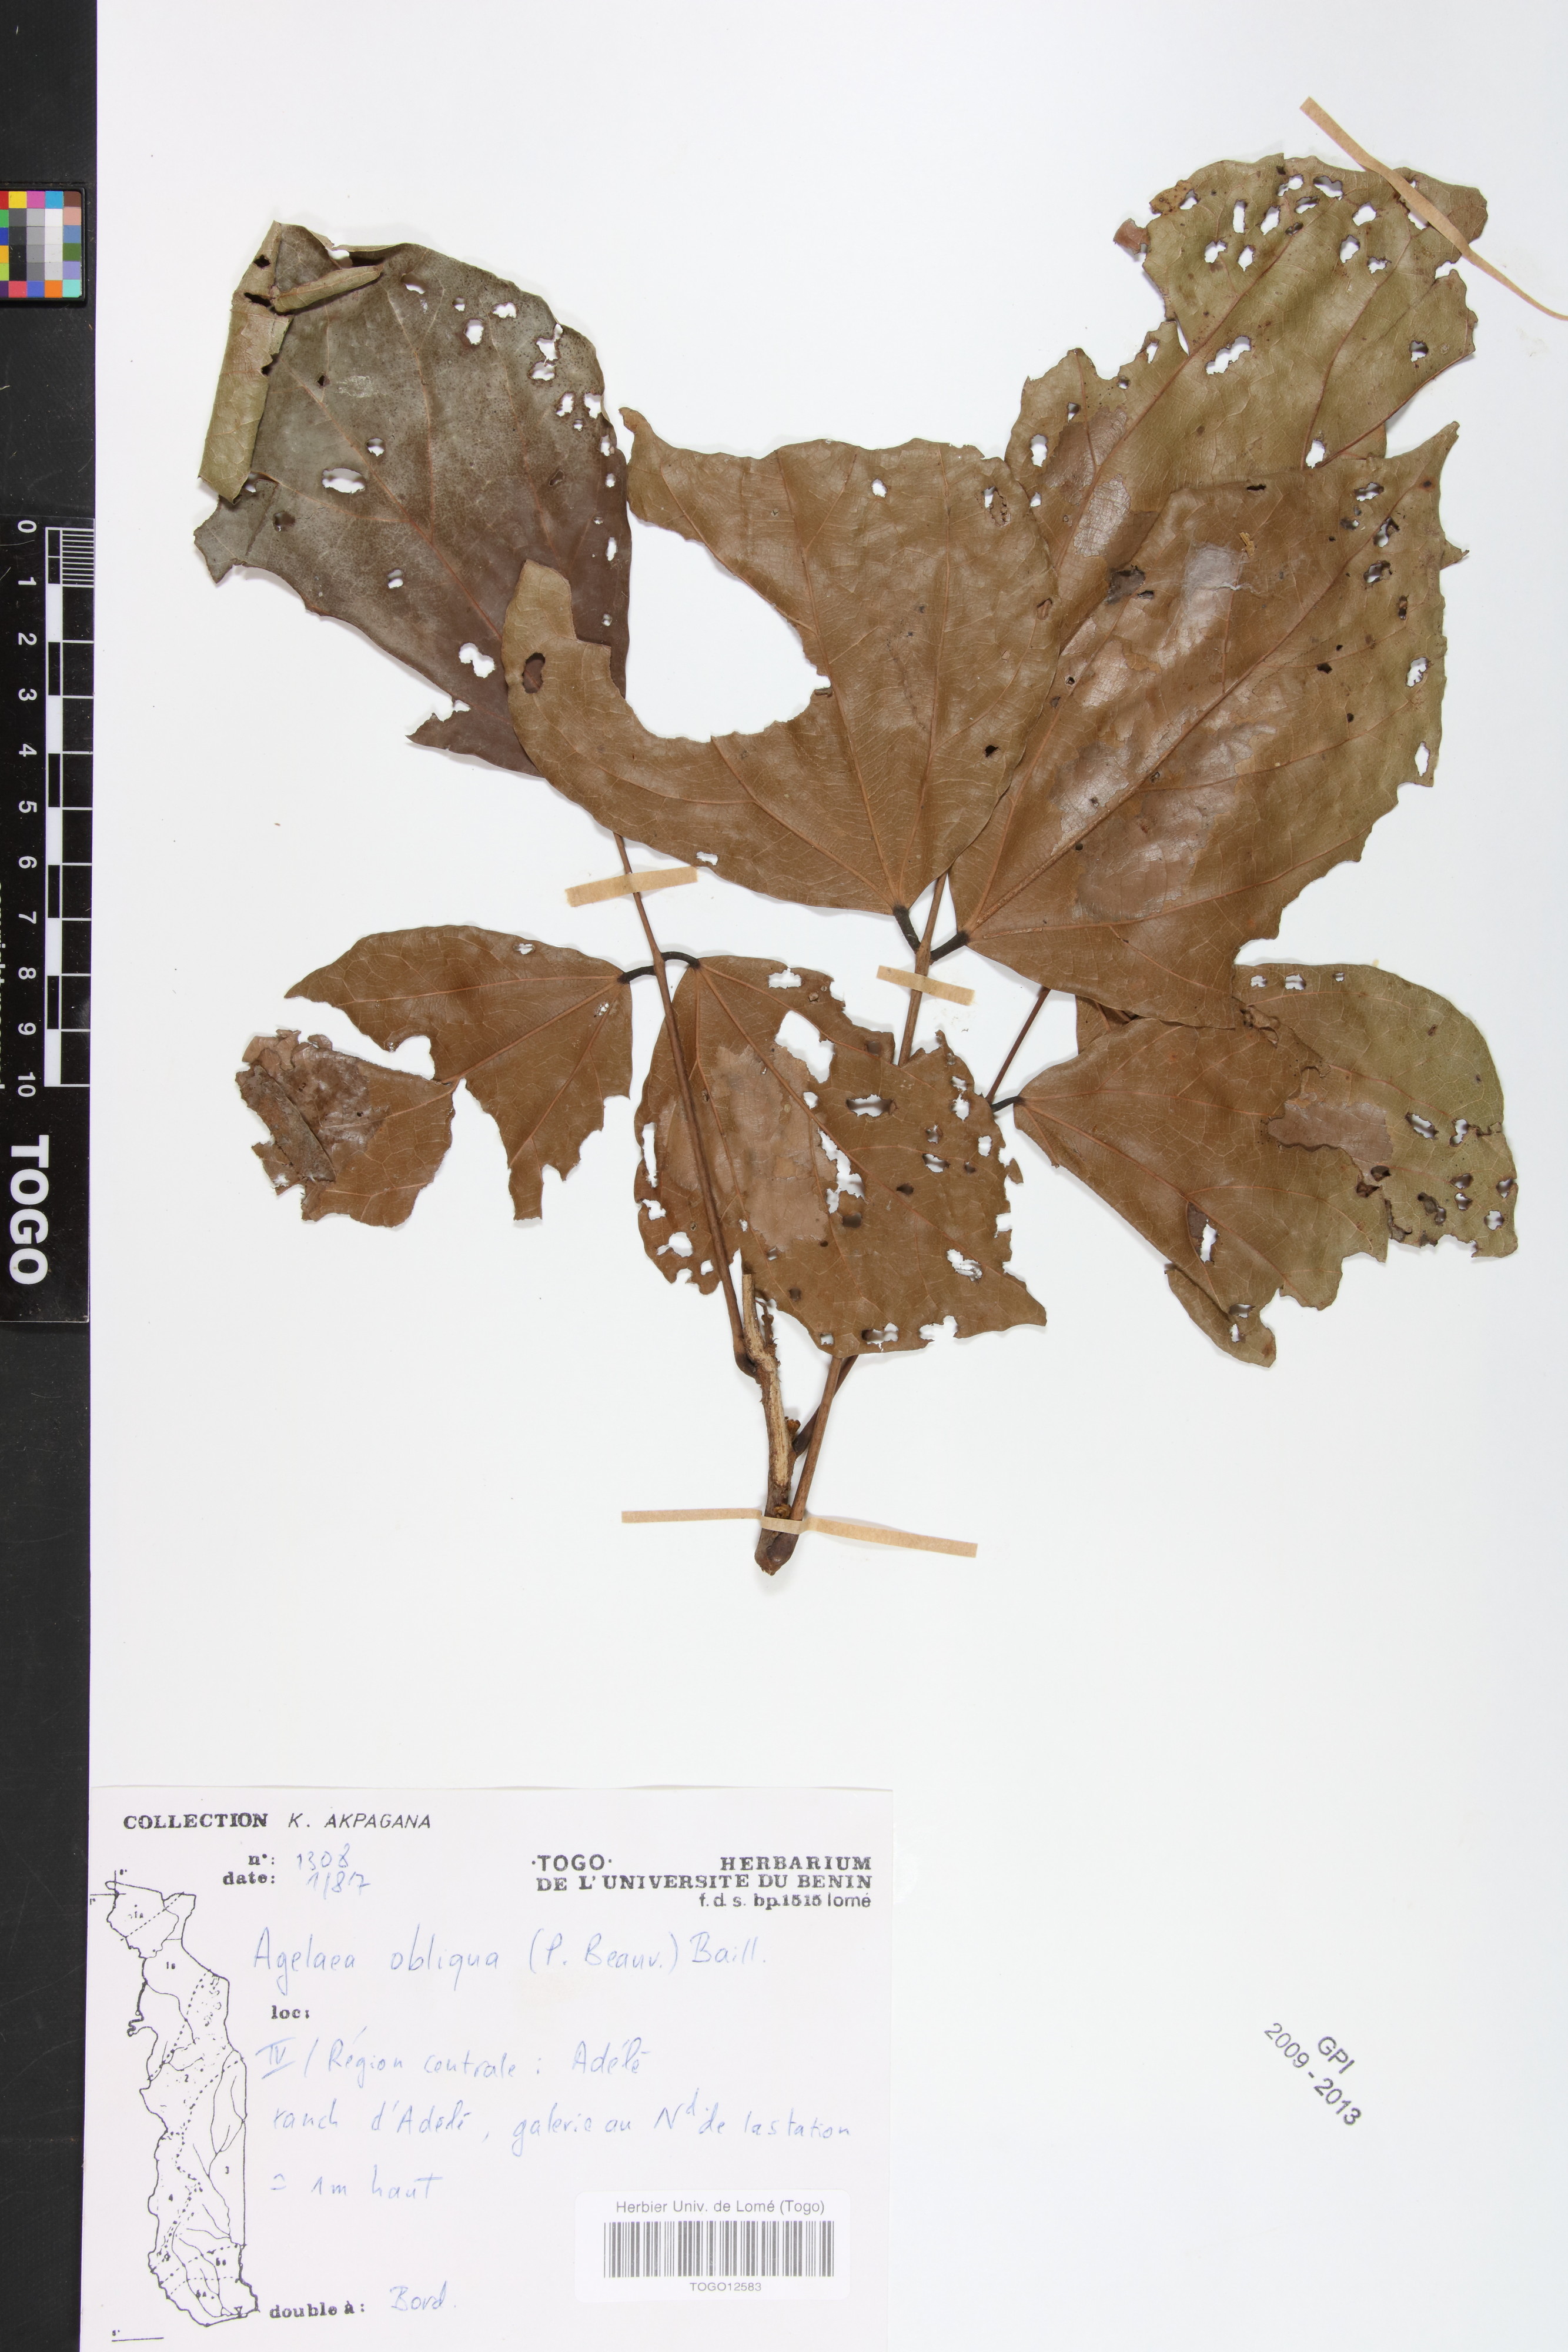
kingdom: Plantae
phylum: Tracheophyta
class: Magnoliopsida
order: Oxalidales
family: Connaraceae
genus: Agelaea
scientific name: Agelaea pentagyna
